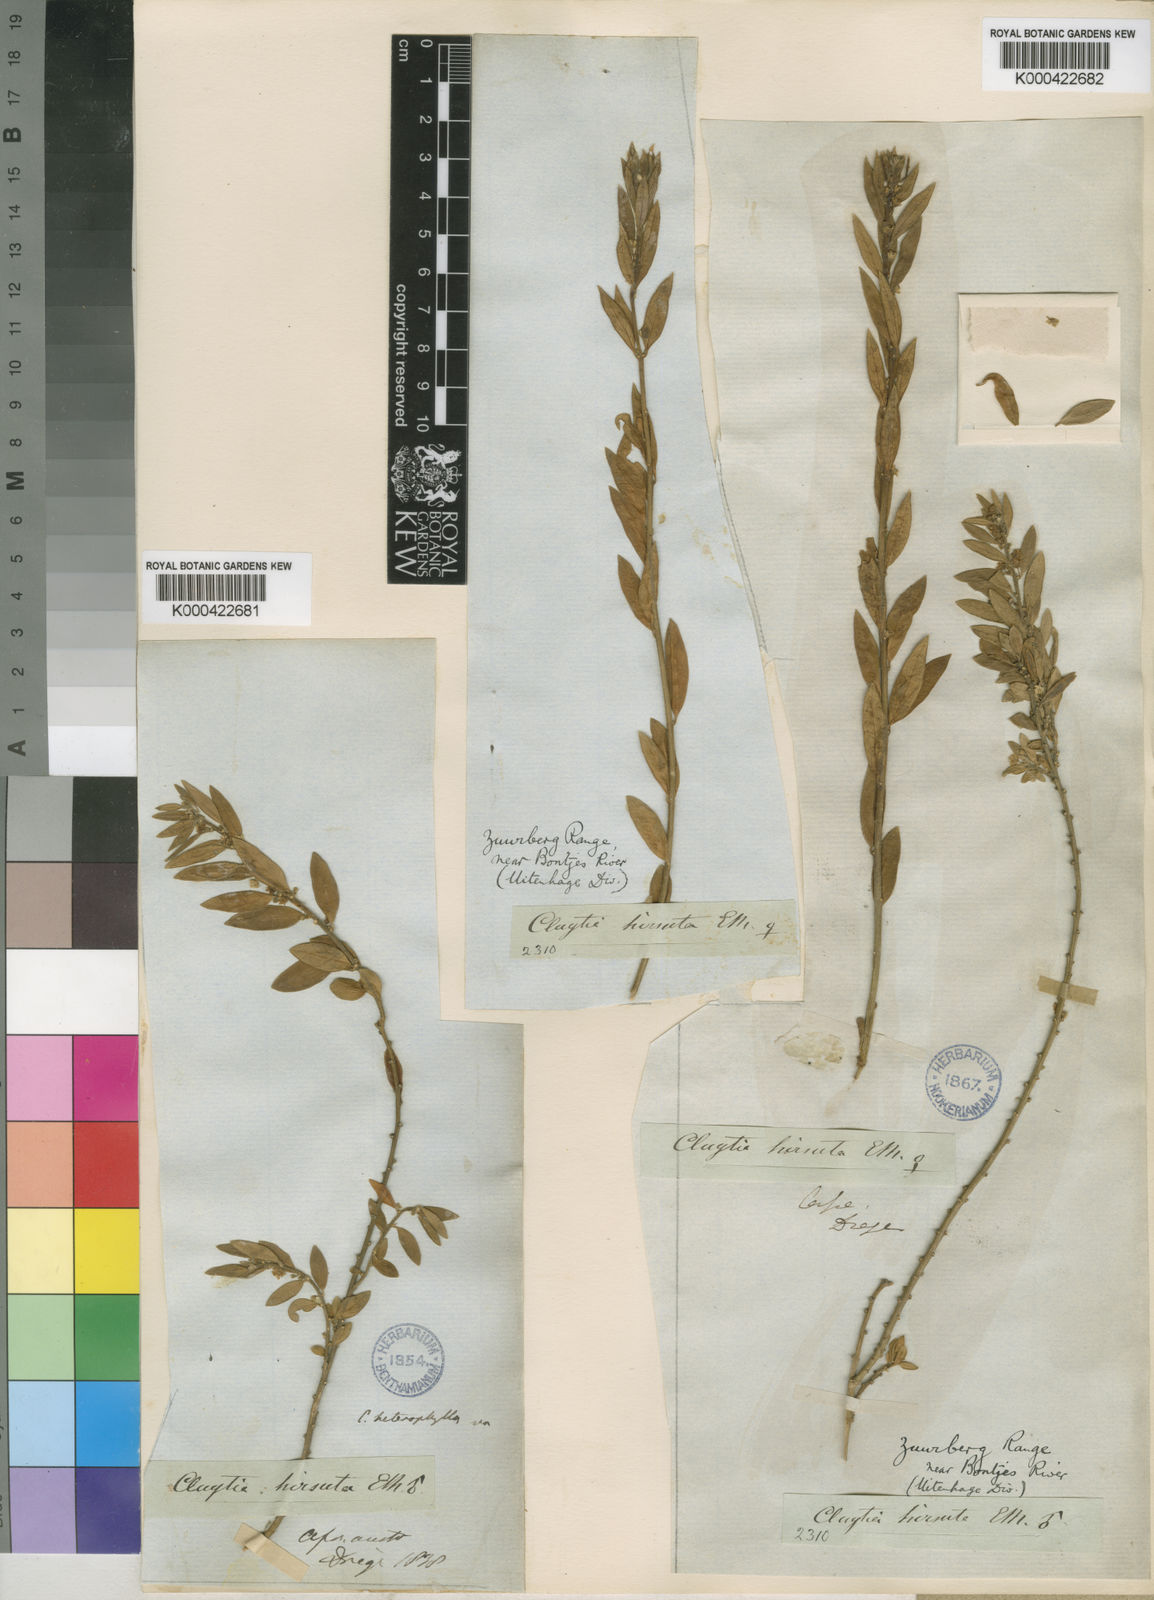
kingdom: Plantae
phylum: Tracheophyta
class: Magnoliopsida
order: Malpighiales
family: Peraceae
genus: Clutia
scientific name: Clutia
